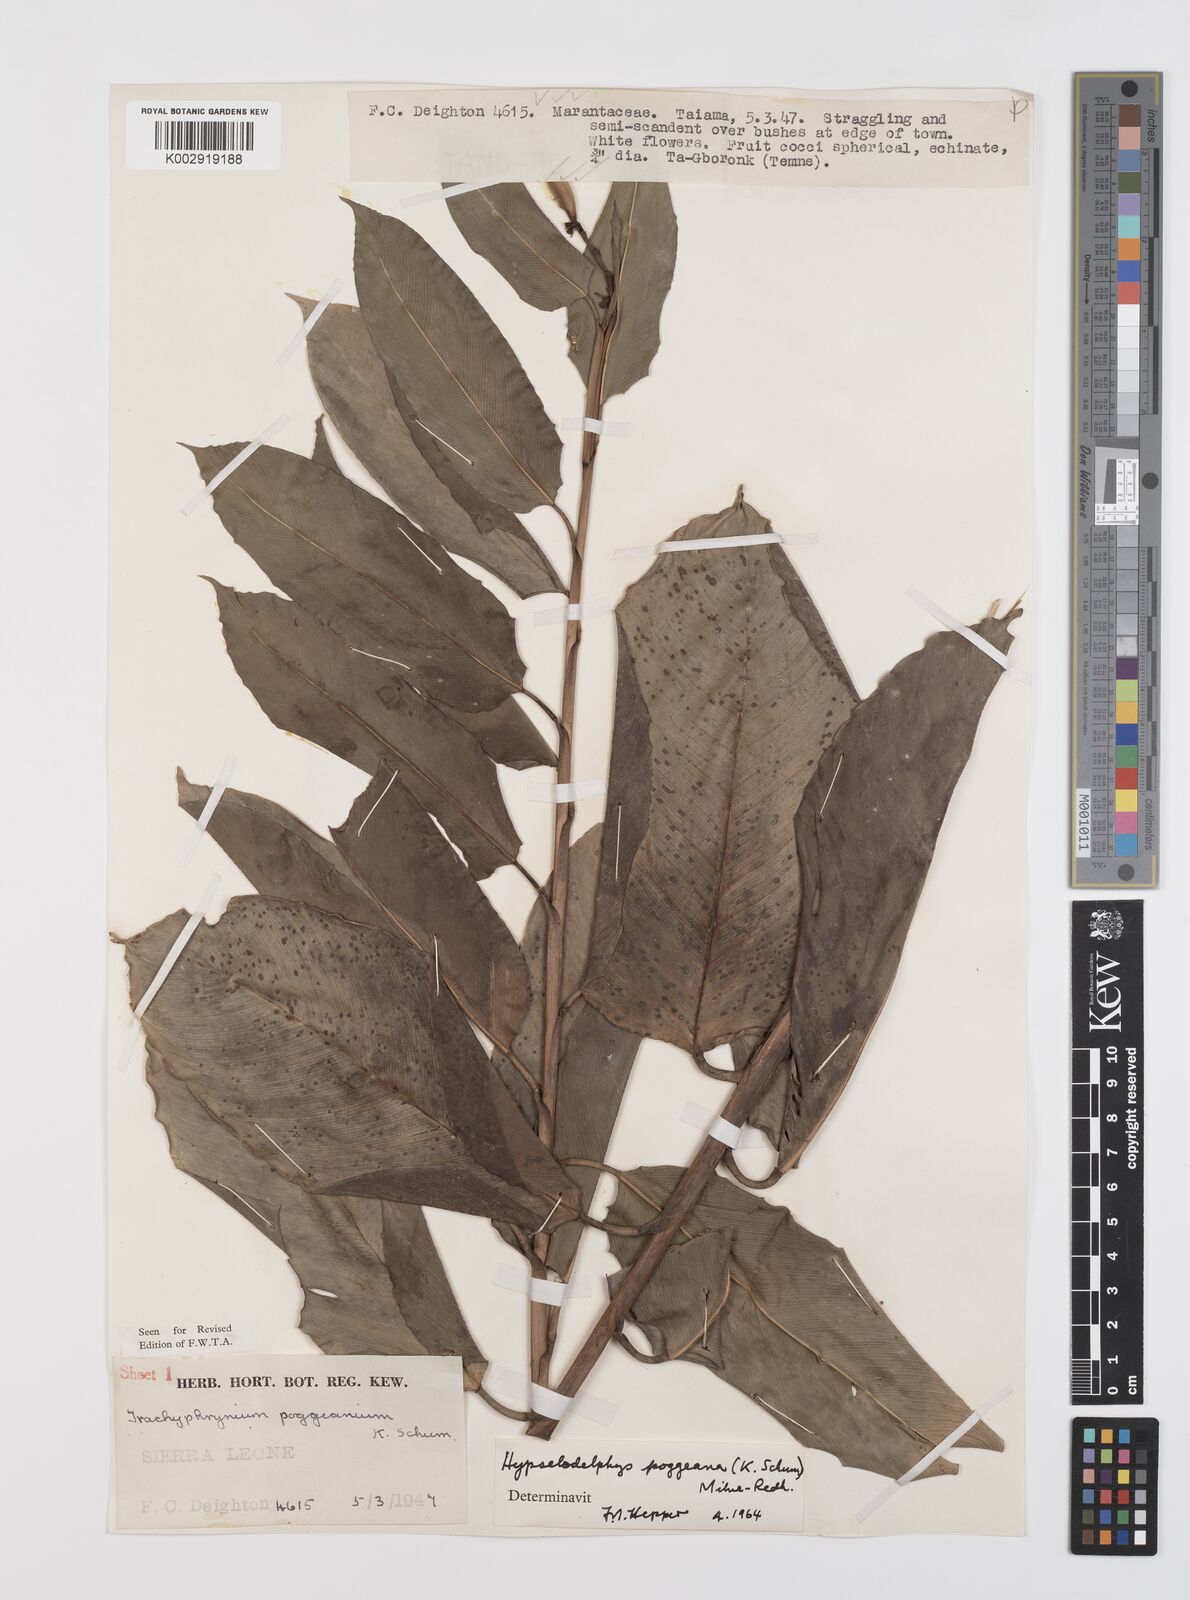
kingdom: Plantae
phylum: Tracheophyta
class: Liliopsida
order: Zingiberales
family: Marantaceae
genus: Hypselodelphys
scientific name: Hypselodelphys poggeana
